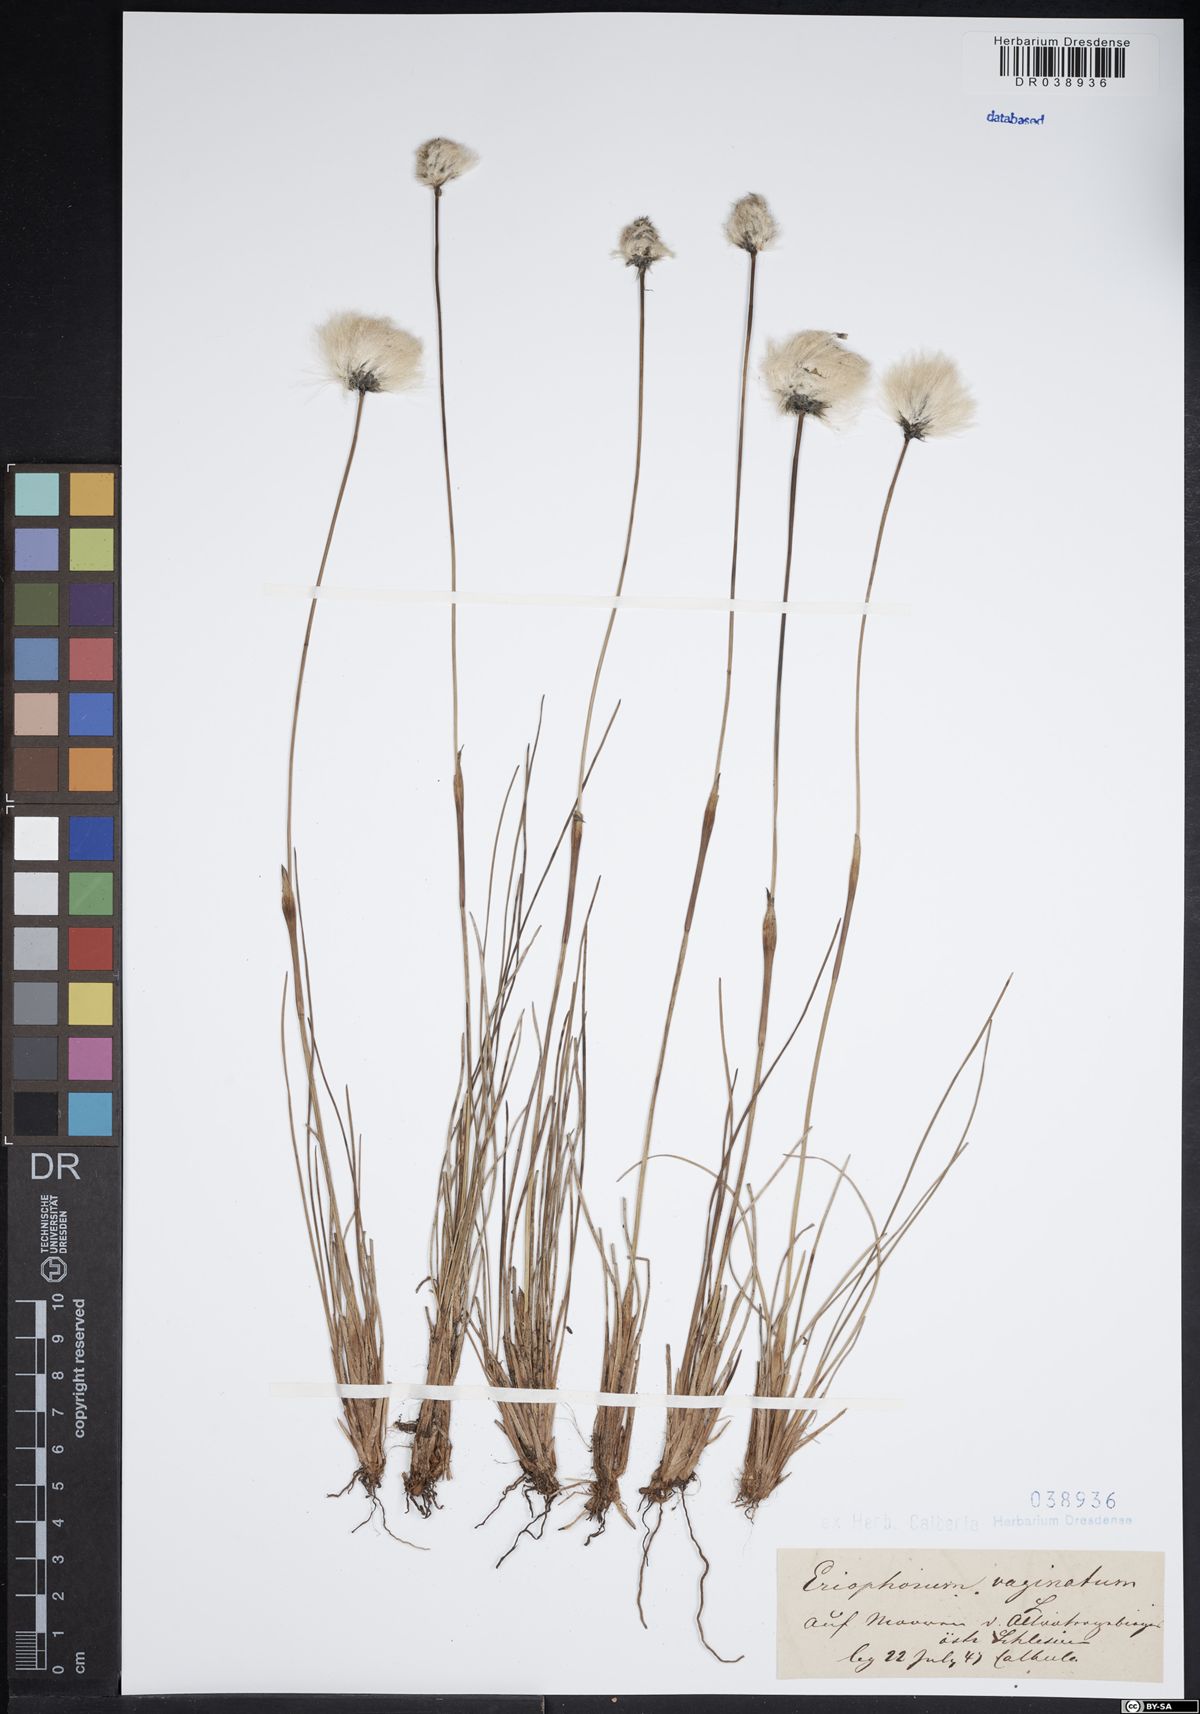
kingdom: Plantae
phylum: Tracheophyta
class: Liliopsida
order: Poales
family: Cyperaceae
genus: Eriophorum
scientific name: Eriophorum vaginatum
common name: Hare's-tail cottongrass
